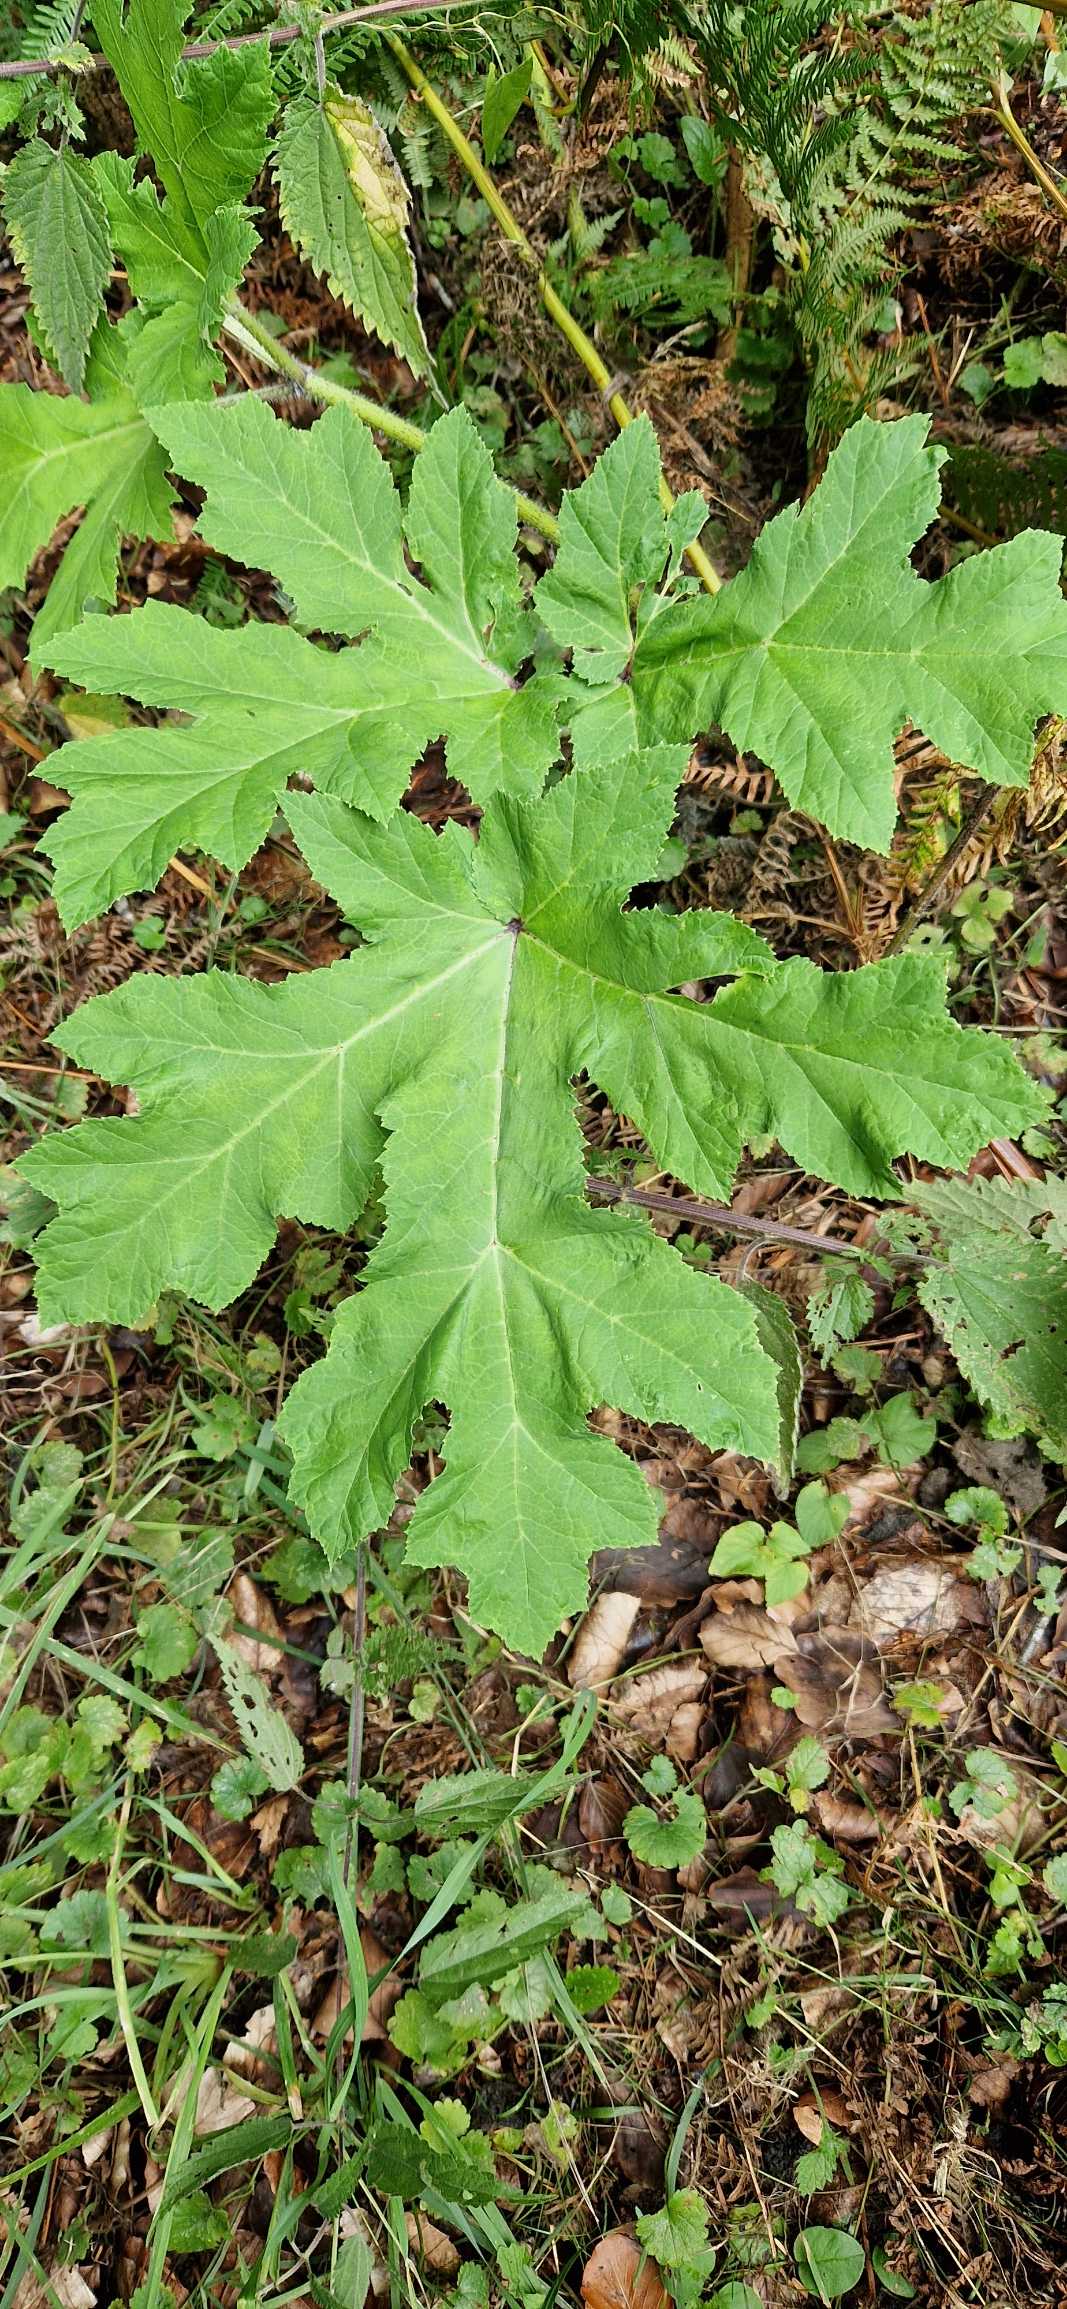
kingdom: Plantae
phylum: Tracheophyta
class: Magnoliopsida
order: Apiales
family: Apiaceae
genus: Heracleum
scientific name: Heracleum mantegazzianum
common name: Kæmpe-bjørneklo
